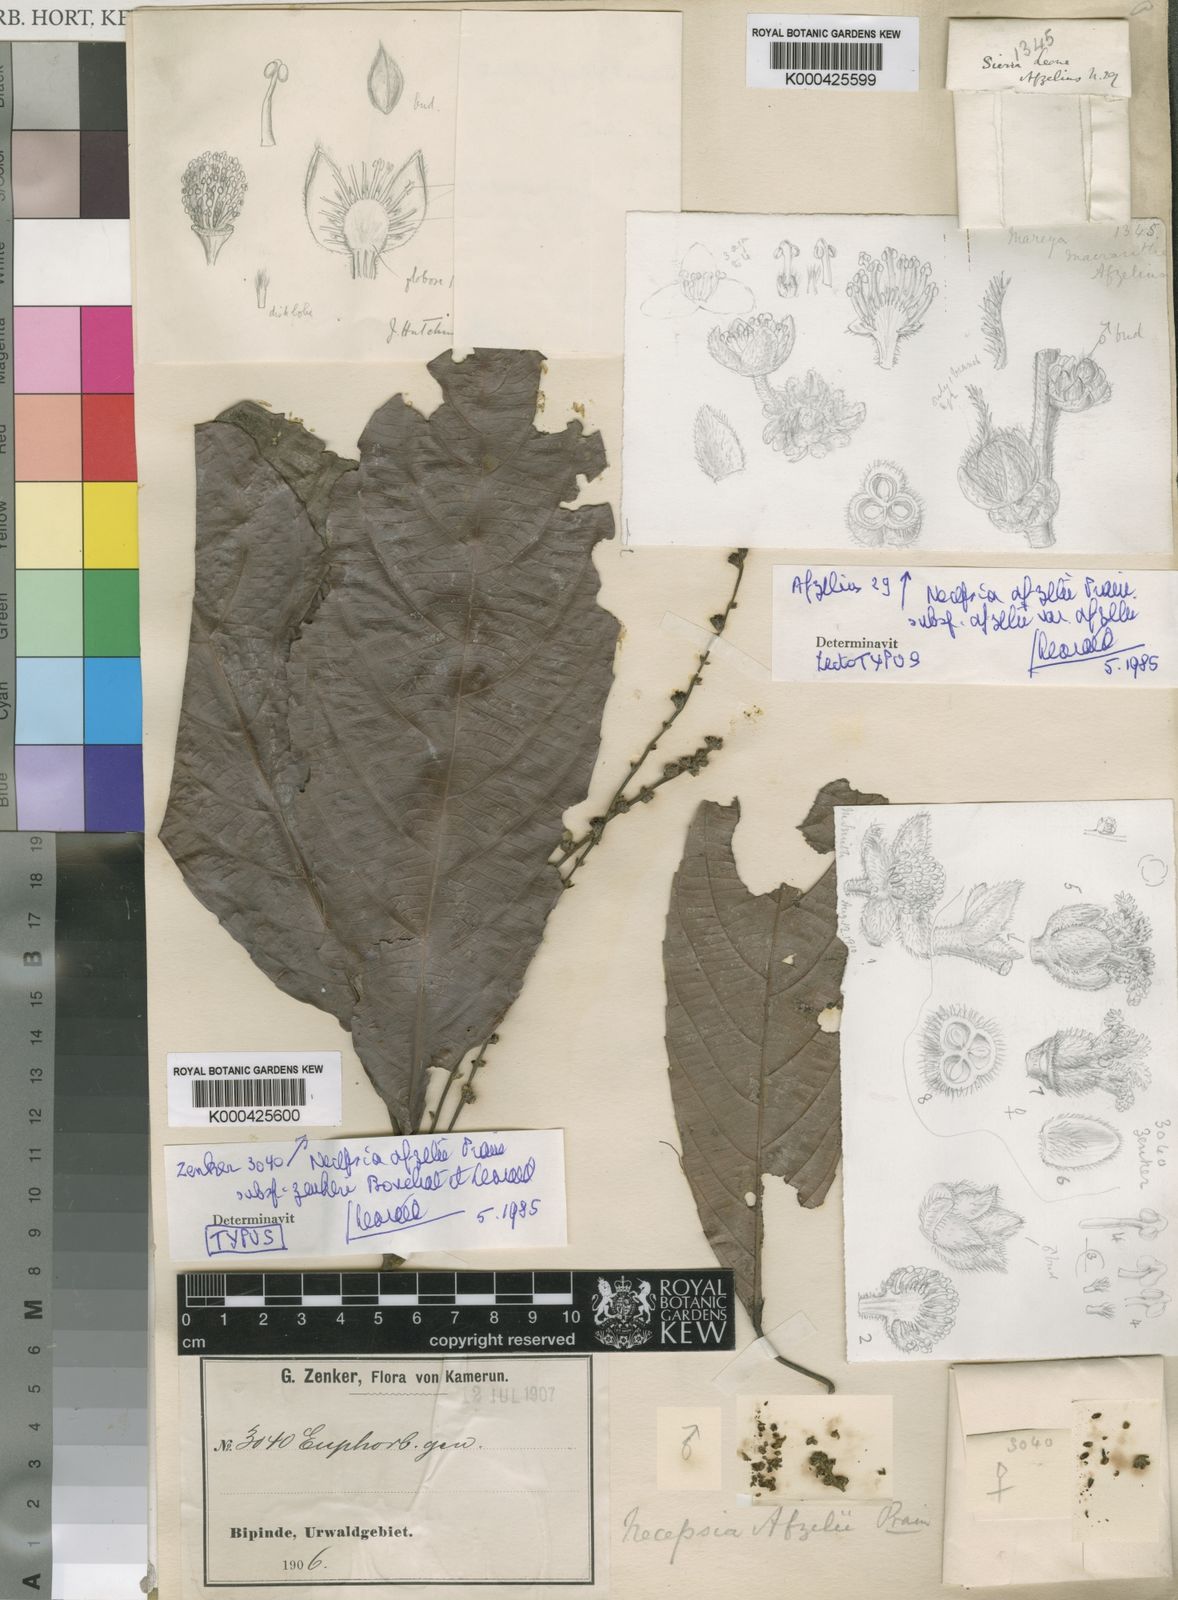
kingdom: Plantae
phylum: Tracheophyta
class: Magnoliopsida
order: Malpighiales
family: Euphorbiaceae
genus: Necepsia
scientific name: Necepsia afzelii
